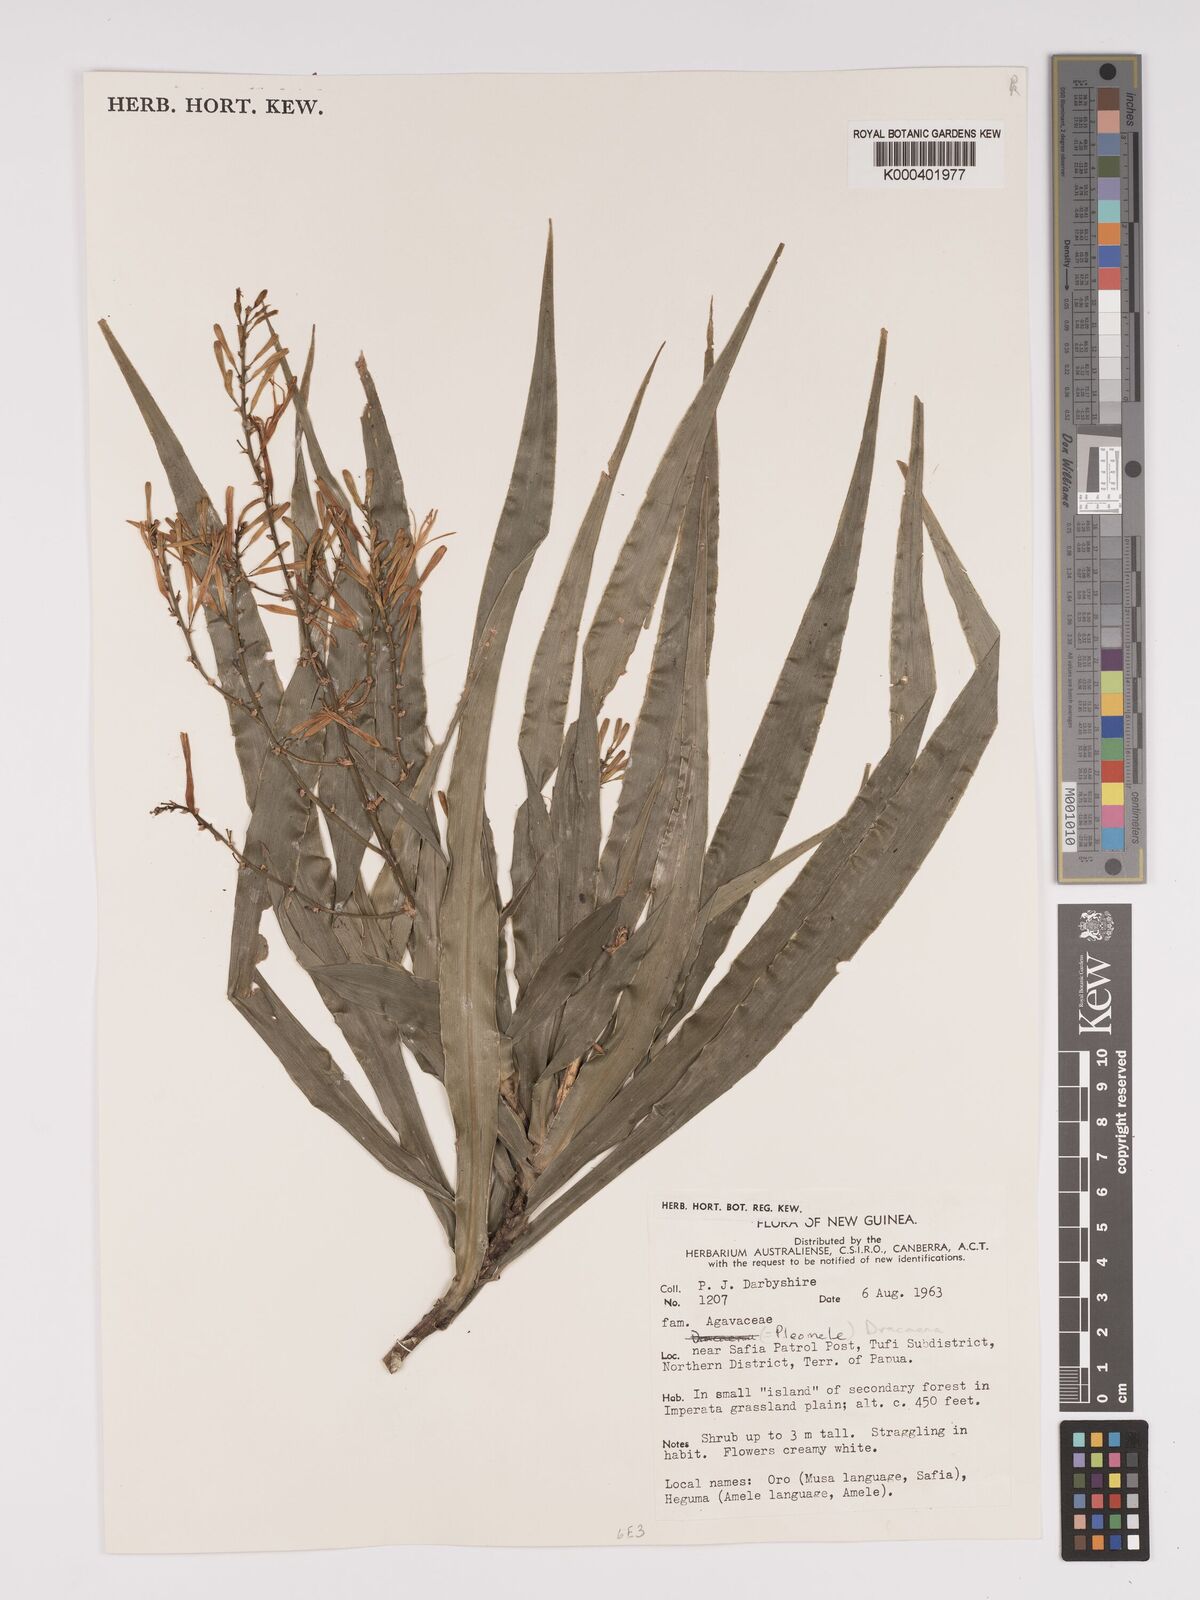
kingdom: Plantae
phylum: Tracheophyta
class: Liliopsida
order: Asparagales
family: Asparagaceae
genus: Dracaena
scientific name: Dracaena angustifolia
